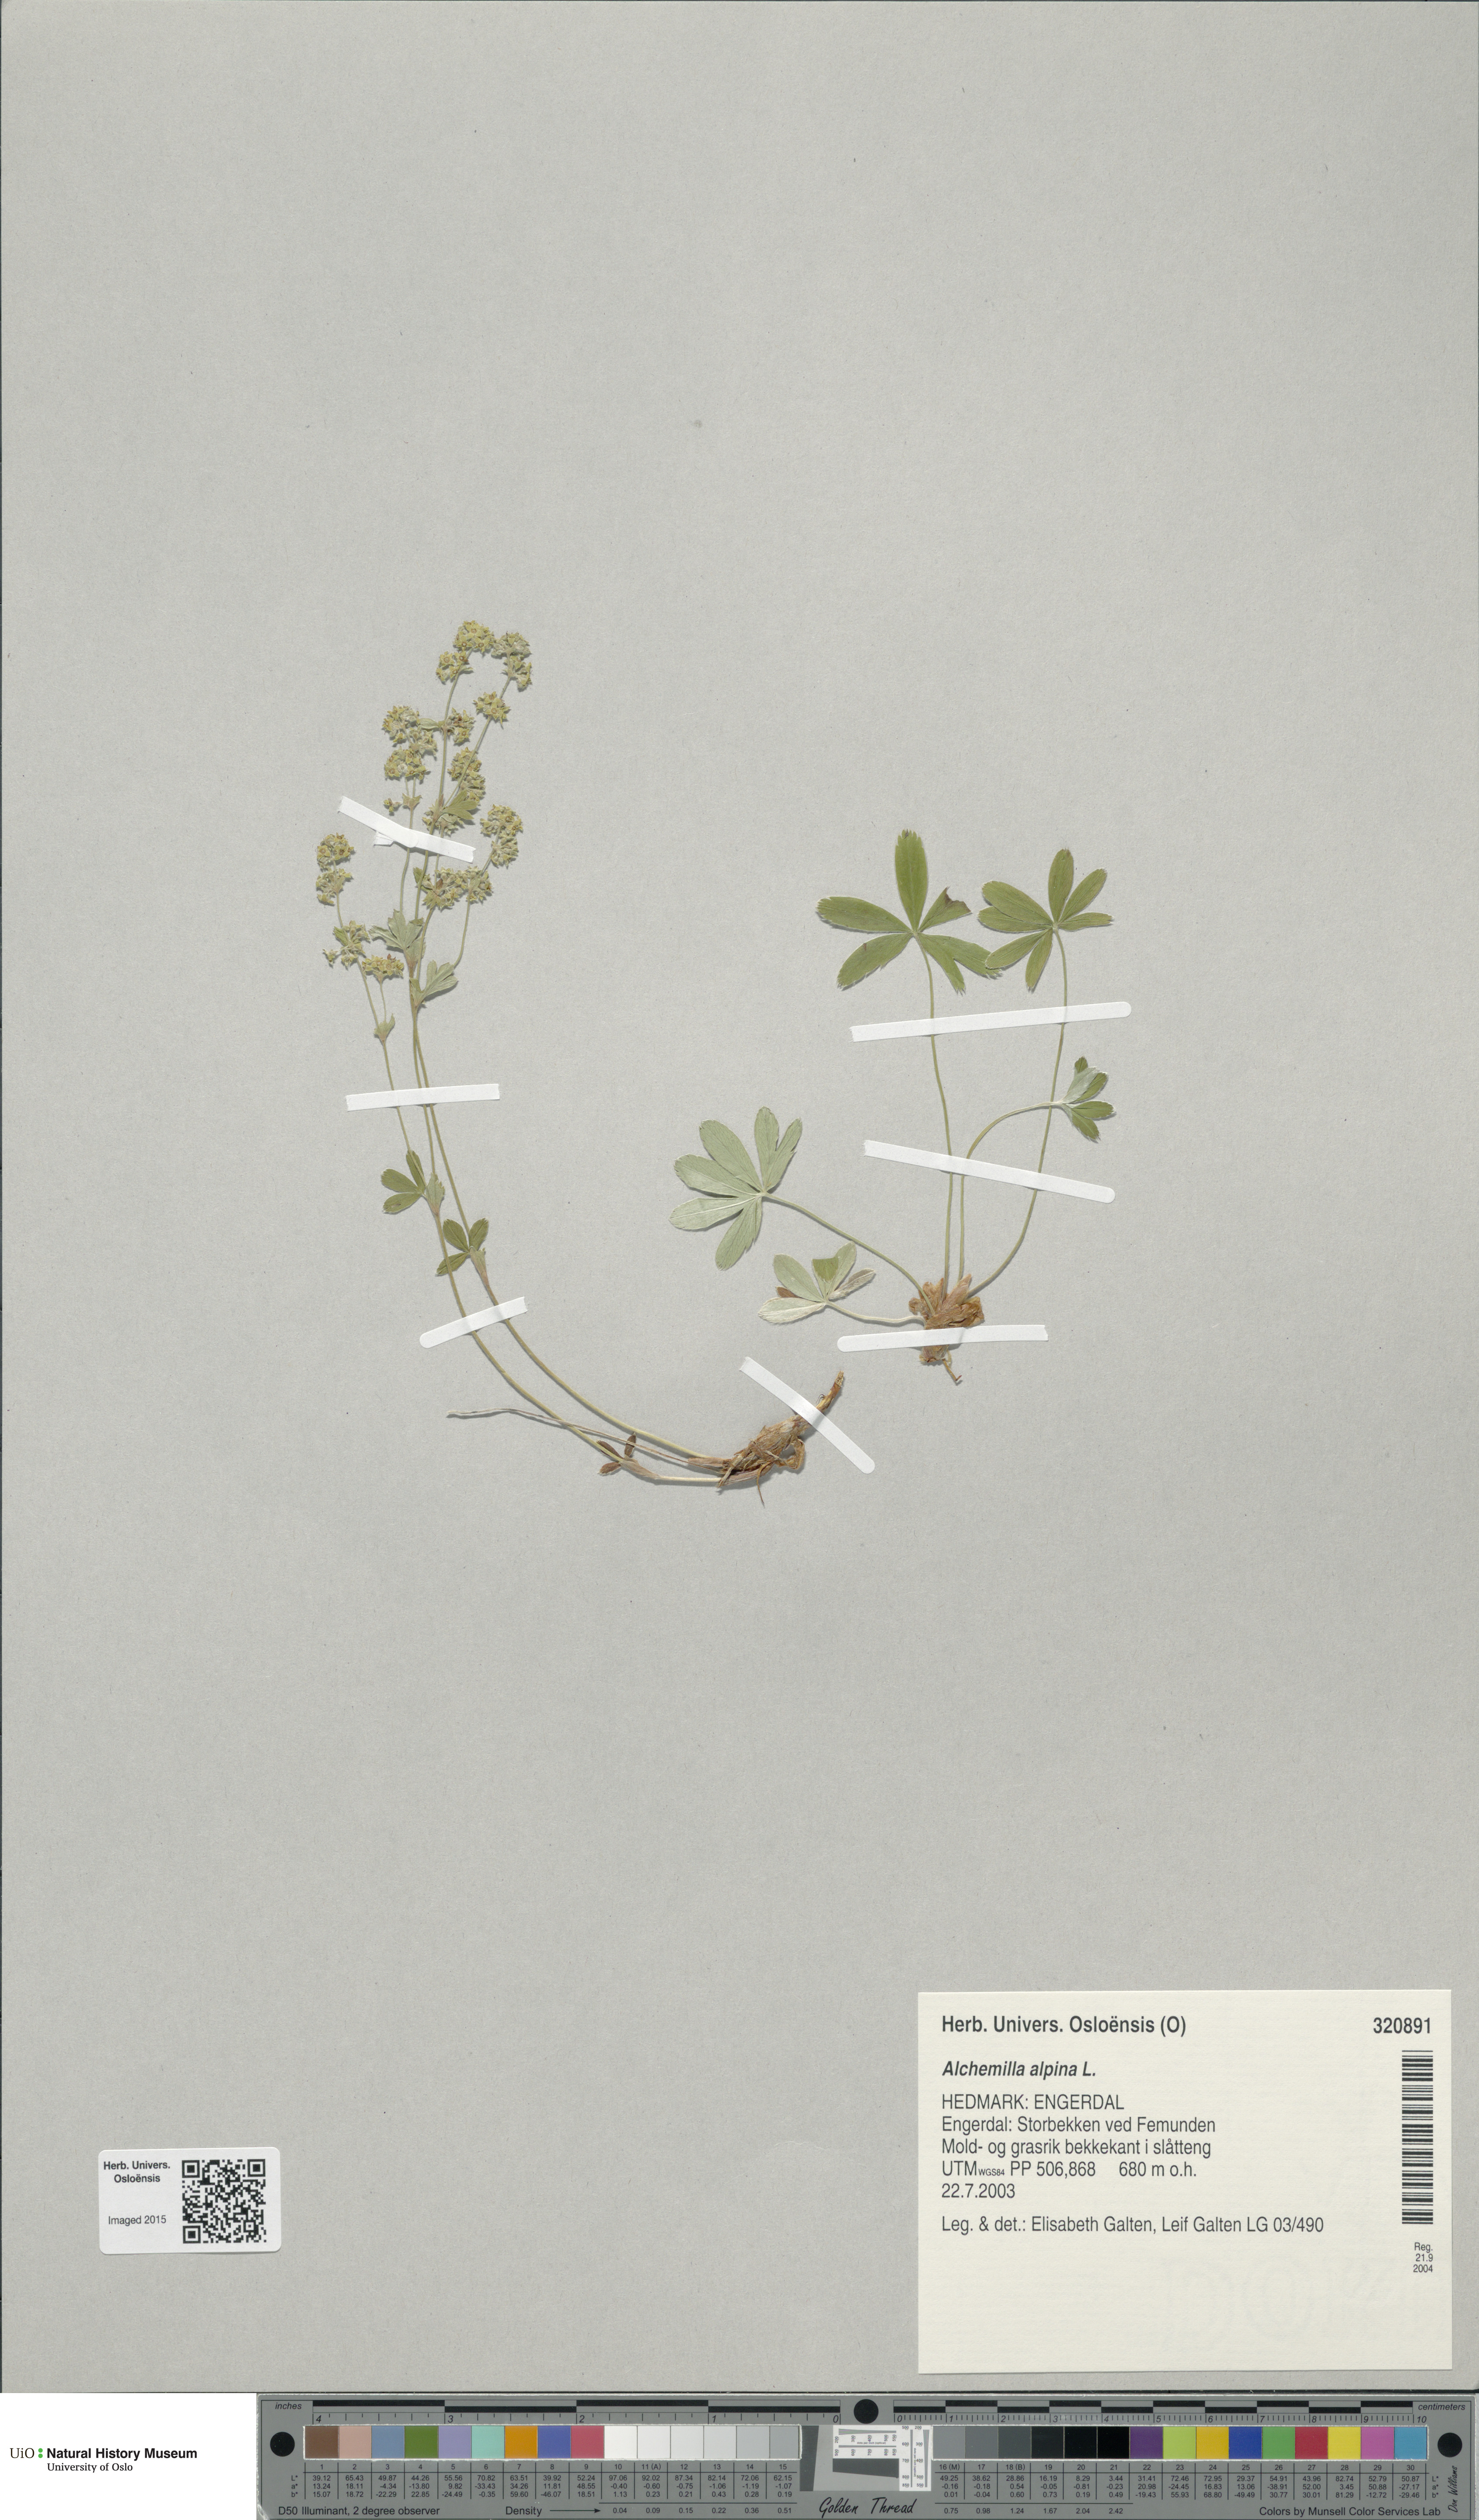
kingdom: Plantae
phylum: Tracheophyta
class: Magnoliopsida
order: Rosales
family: Rosaceae
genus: Alchemilla
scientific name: Alchemilla alpina
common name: Alpine lady's-mantle
